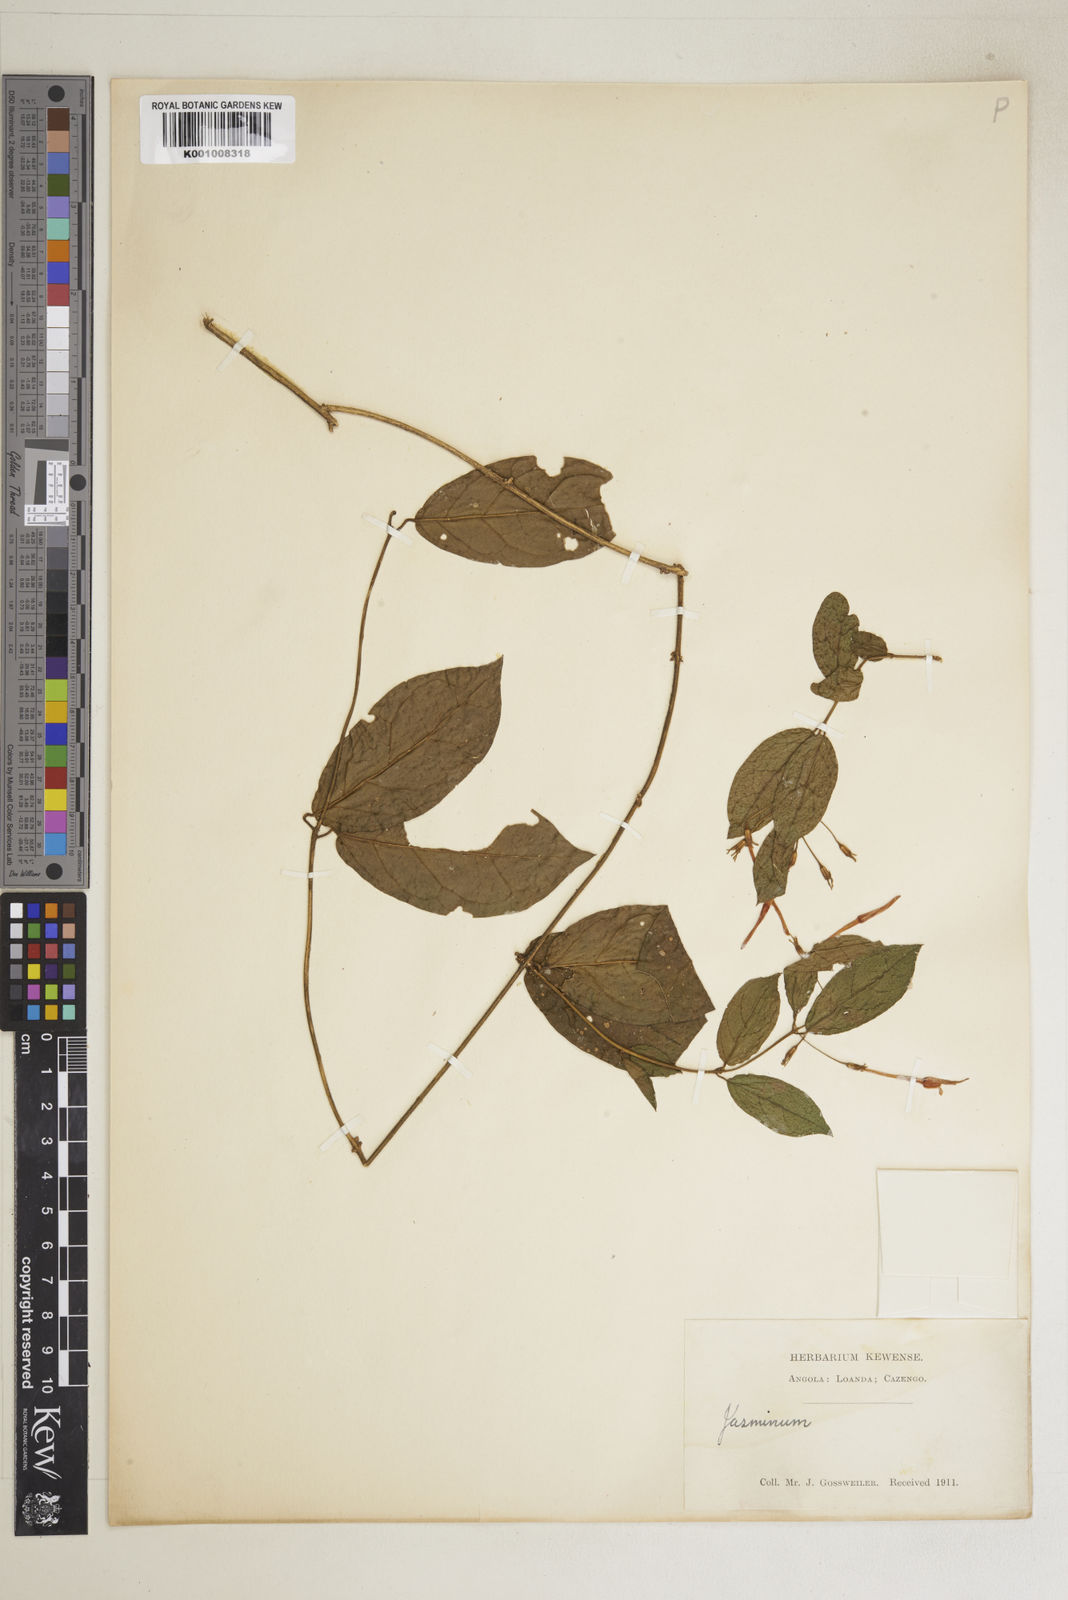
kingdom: Plantae
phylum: Tracheophyta
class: Magnoliopsida
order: Lamiales
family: Oleaceae
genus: Jasminum
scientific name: Jasminum pauciflorum
